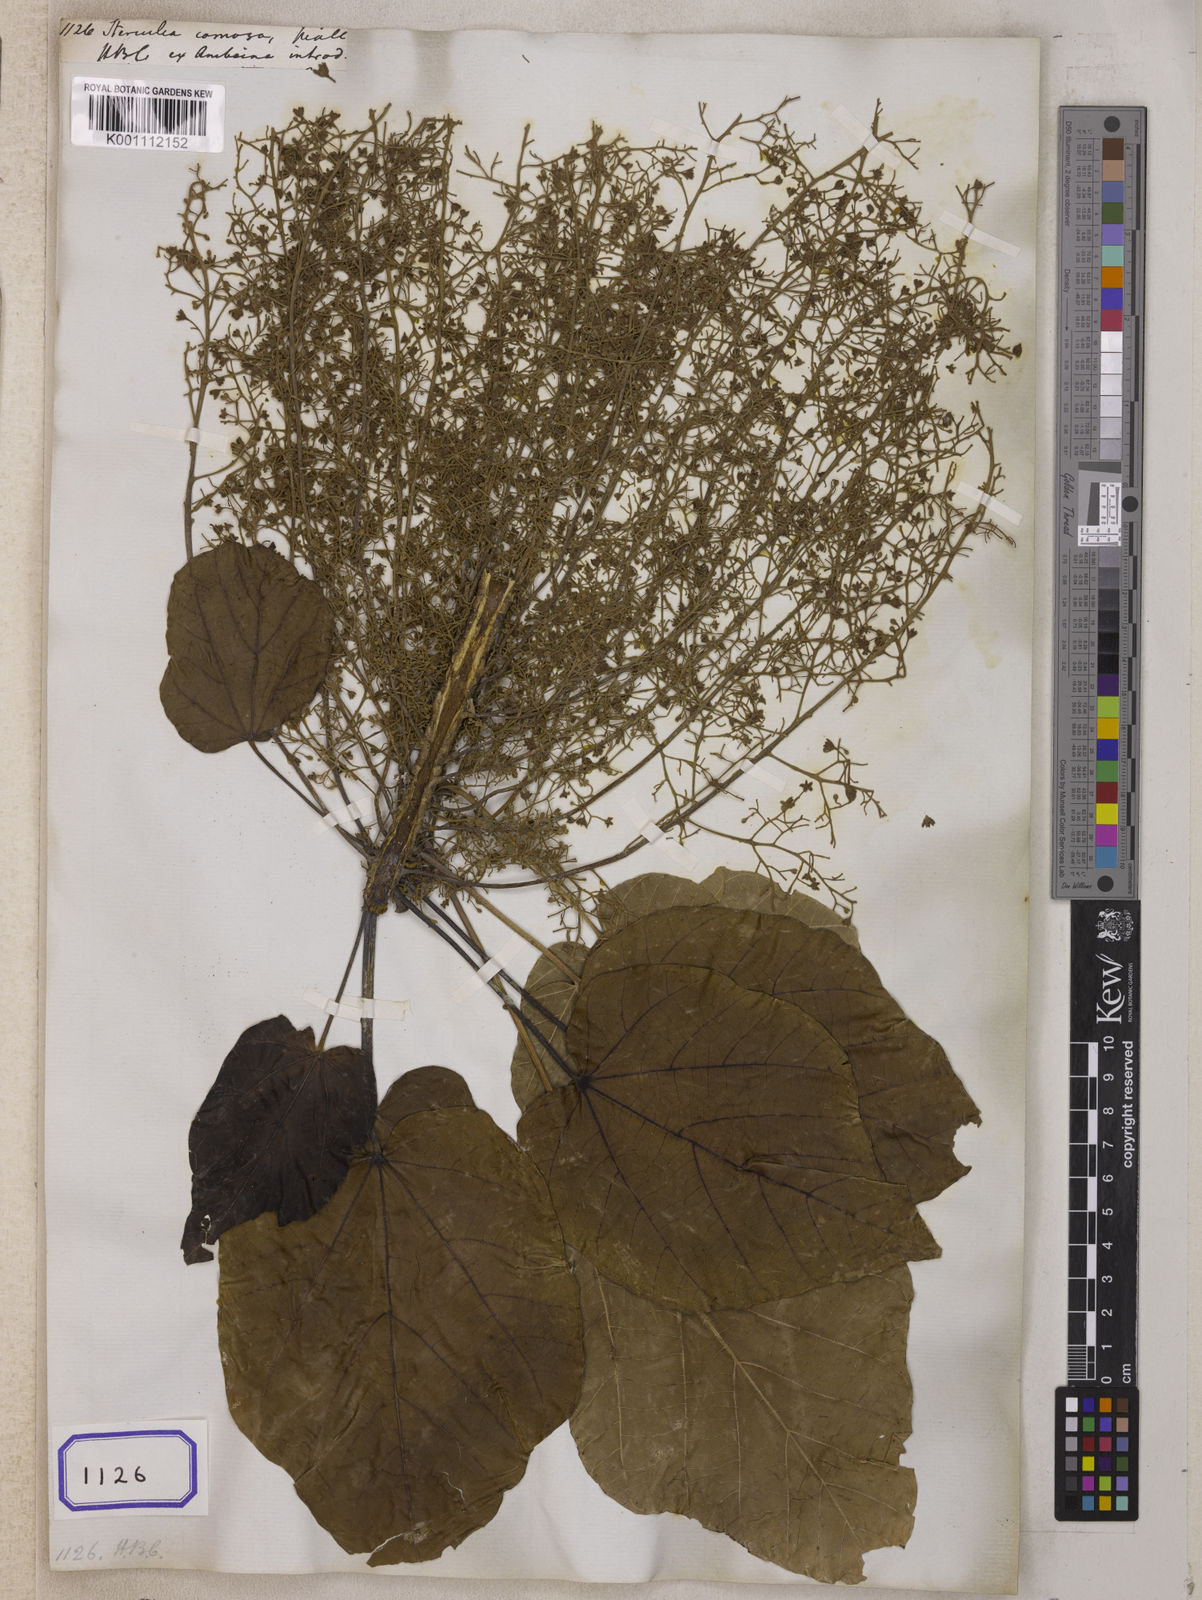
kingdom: Plantae
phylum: Tracheophyta
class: Magnoliopsida
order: Malvales
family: Malvaceae
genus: Sterculia
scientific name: Sterculia comosa
